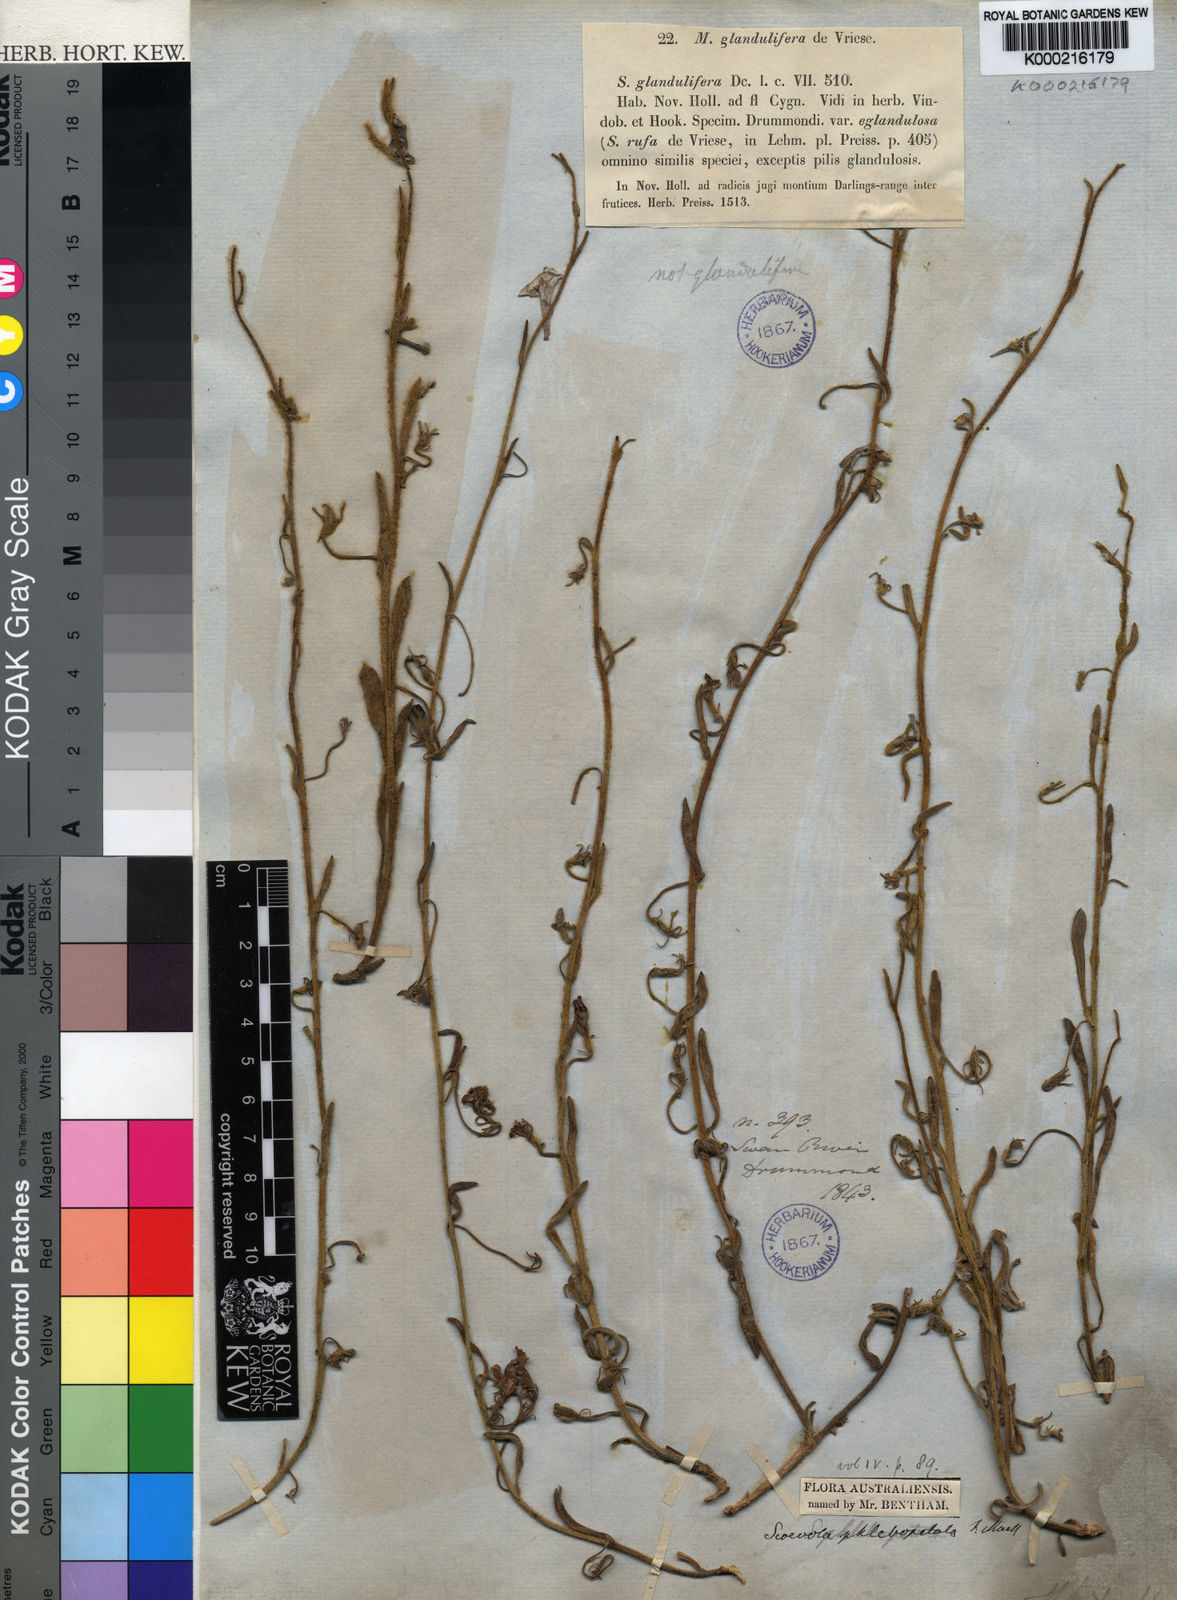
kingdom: Plantae
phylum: Tracheophyta
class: Magnoliopsida
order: Asterales
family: Goodeniaceae
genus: Scaevola
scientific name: Scaevola phlebopetala
